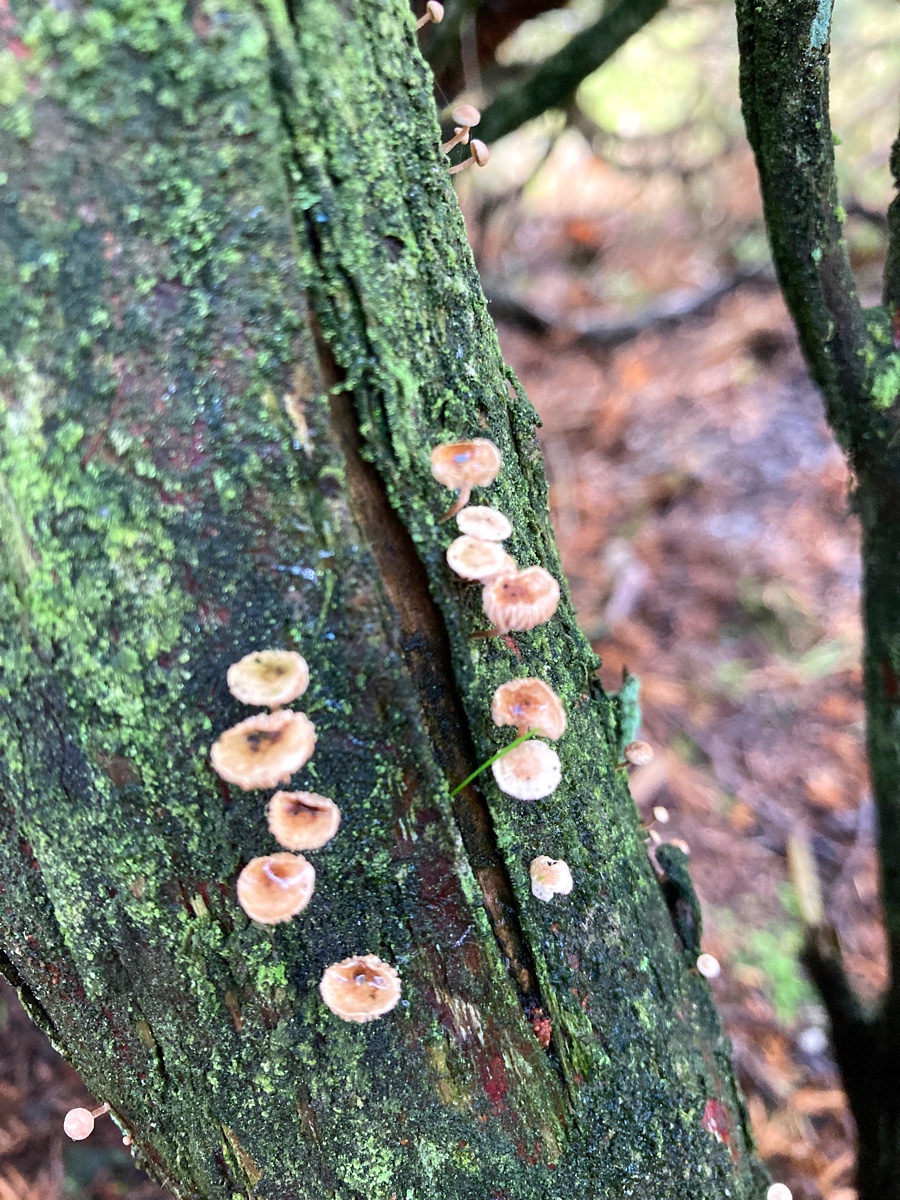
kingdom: Fungi
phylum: Basidiomycota
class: Agaricomycetes
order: Agaricales
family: Omphalotaceae
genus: Collybiopsis
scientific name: Collybiopsis ramealis
